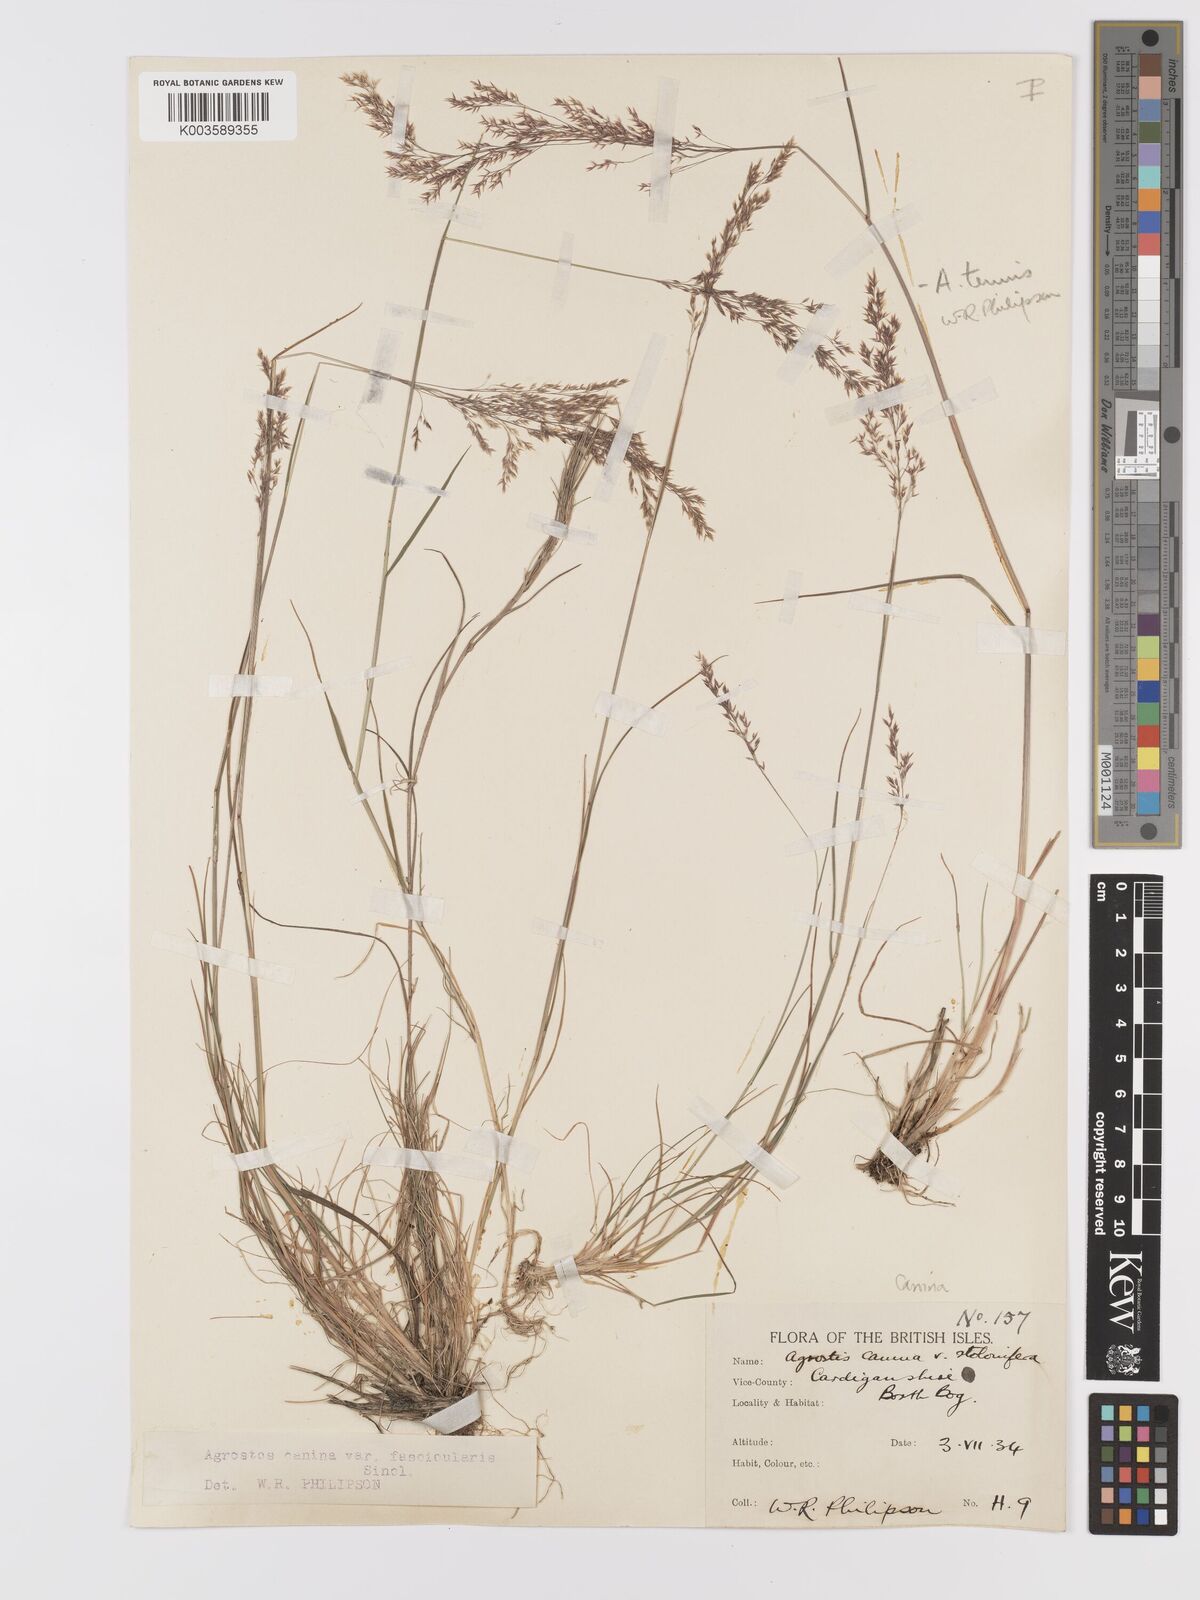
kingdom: Plantae
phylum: Tracheophyta
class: Liliopsida
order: Poales
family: Poaceae
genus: Agrostis
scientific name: Agrostis canina
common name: Velvet bent
